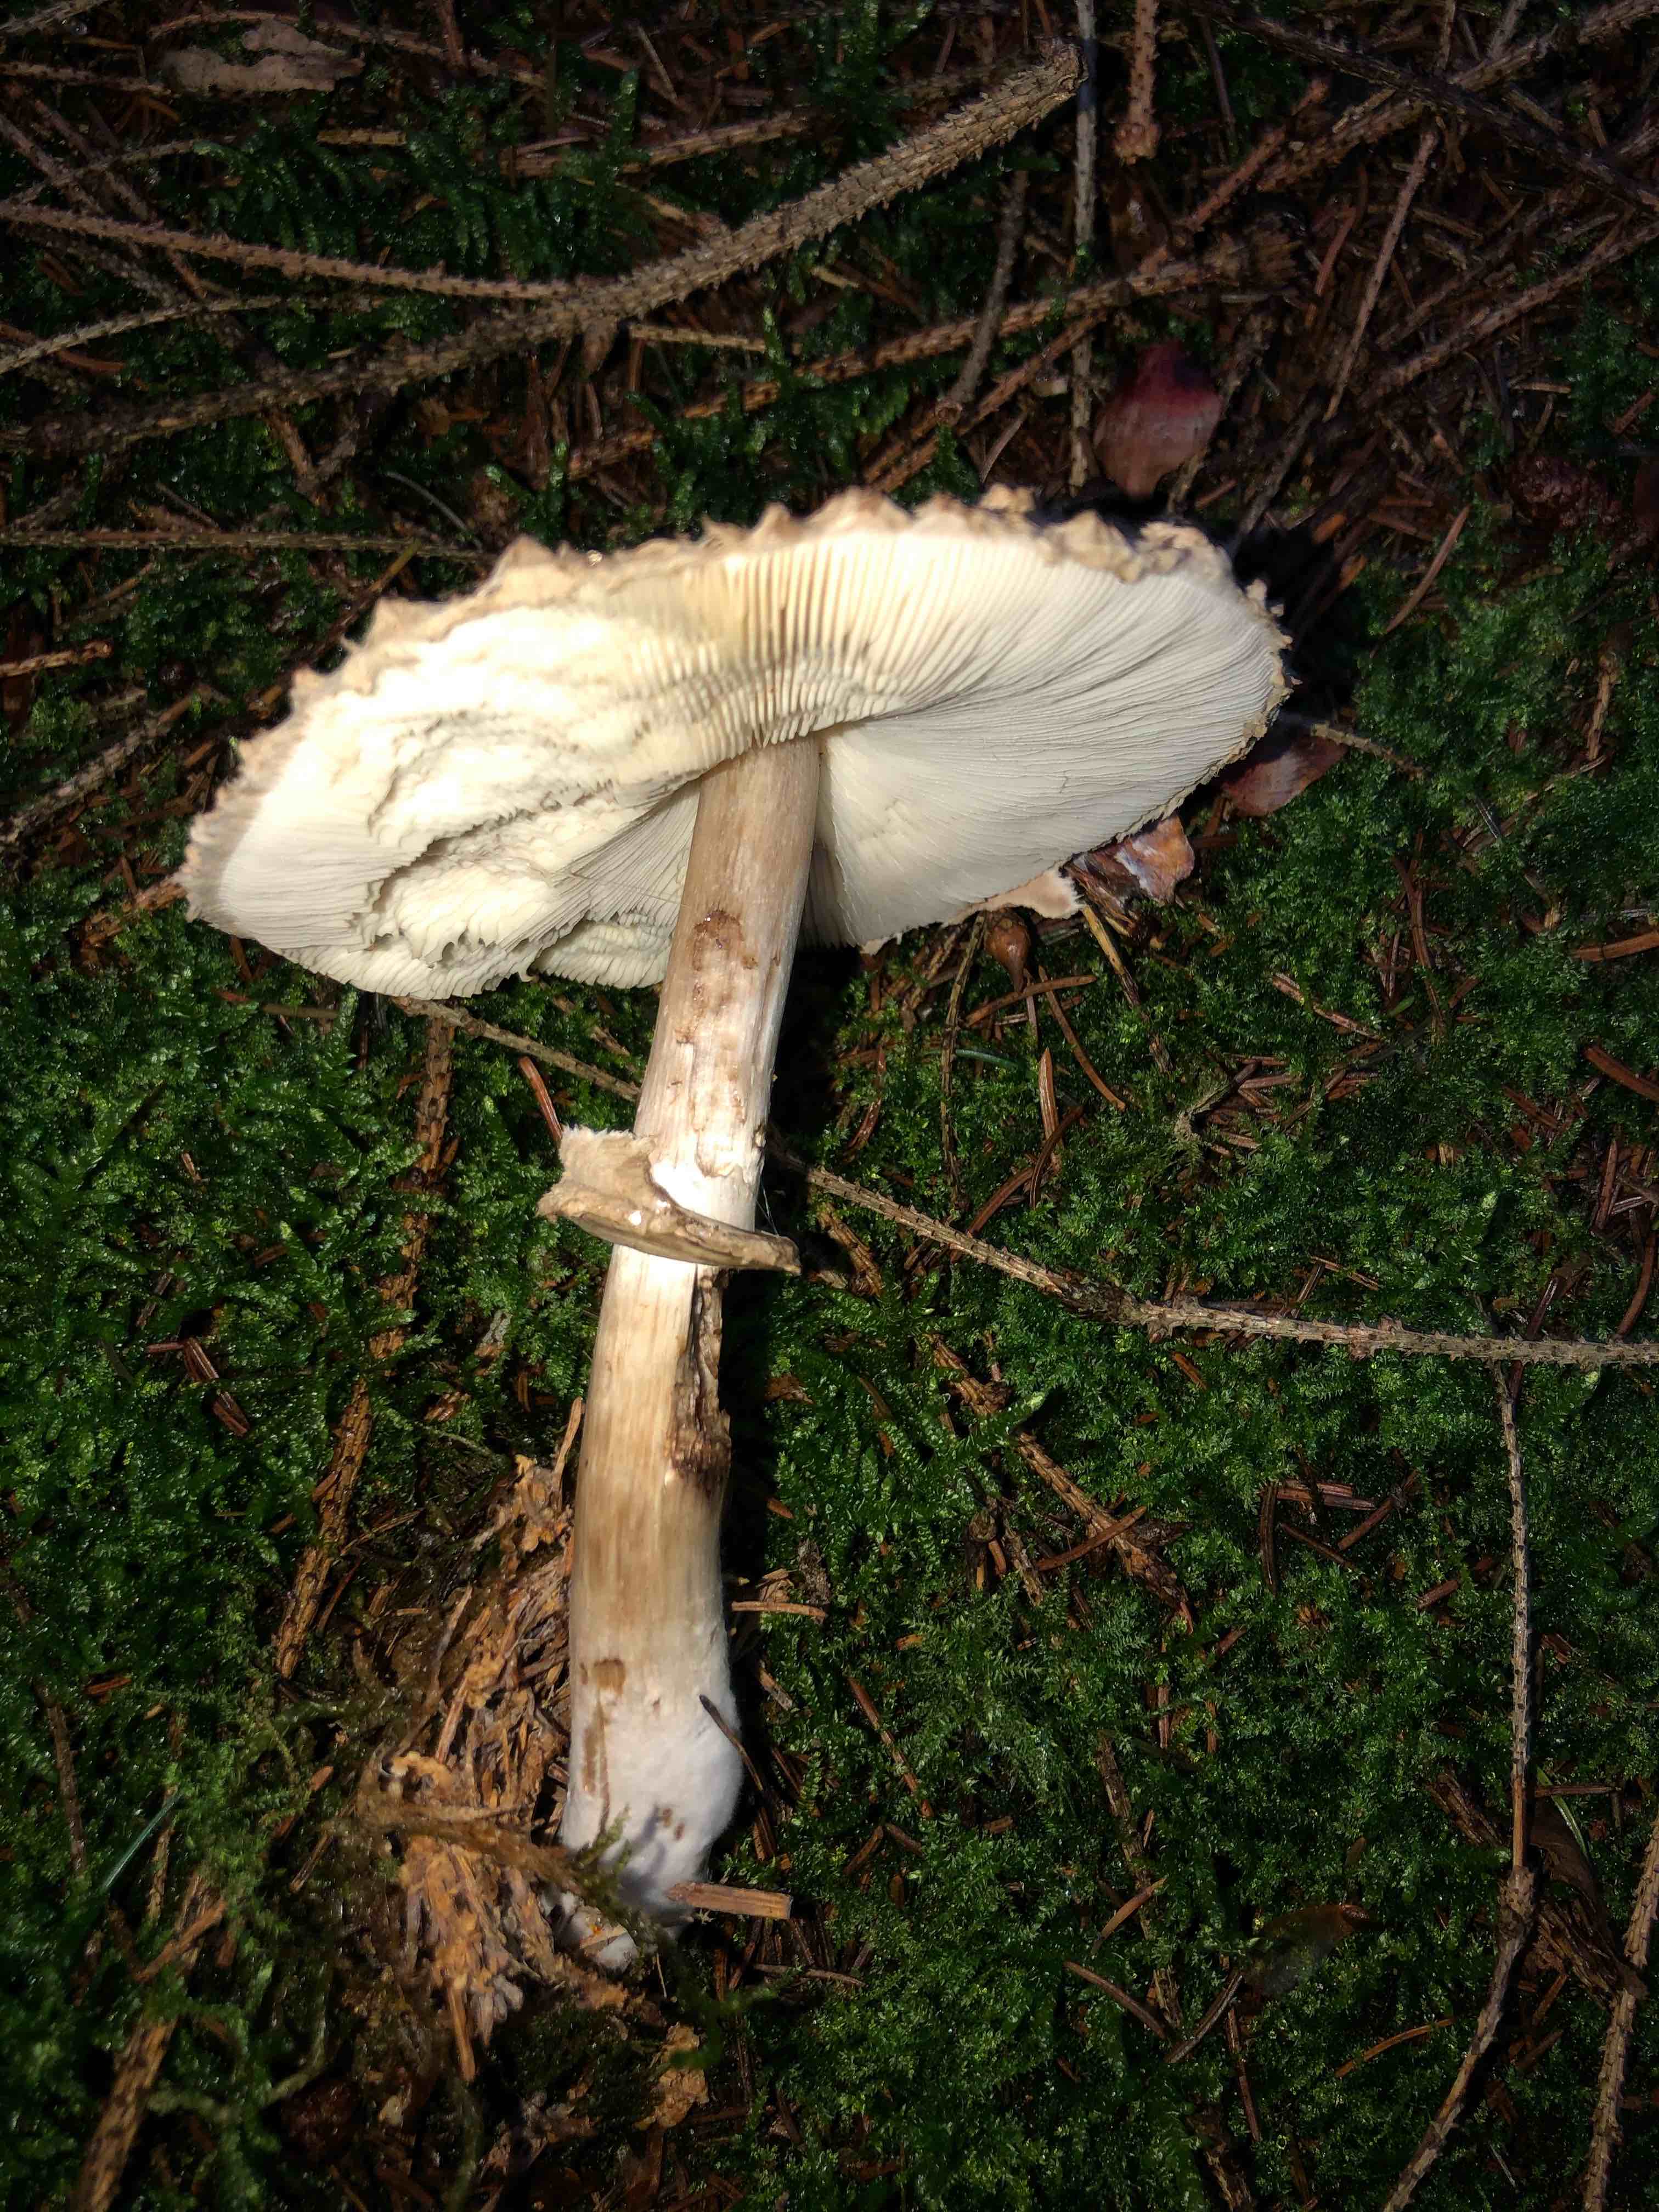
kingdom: Fungi
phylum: Basidiomycota
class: Agaricomycetes
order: Agaricales
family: Agaricaceae
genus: Chlorophyllum
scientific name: Chlorophyllum olivieri
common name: almindelig rabarberhat
